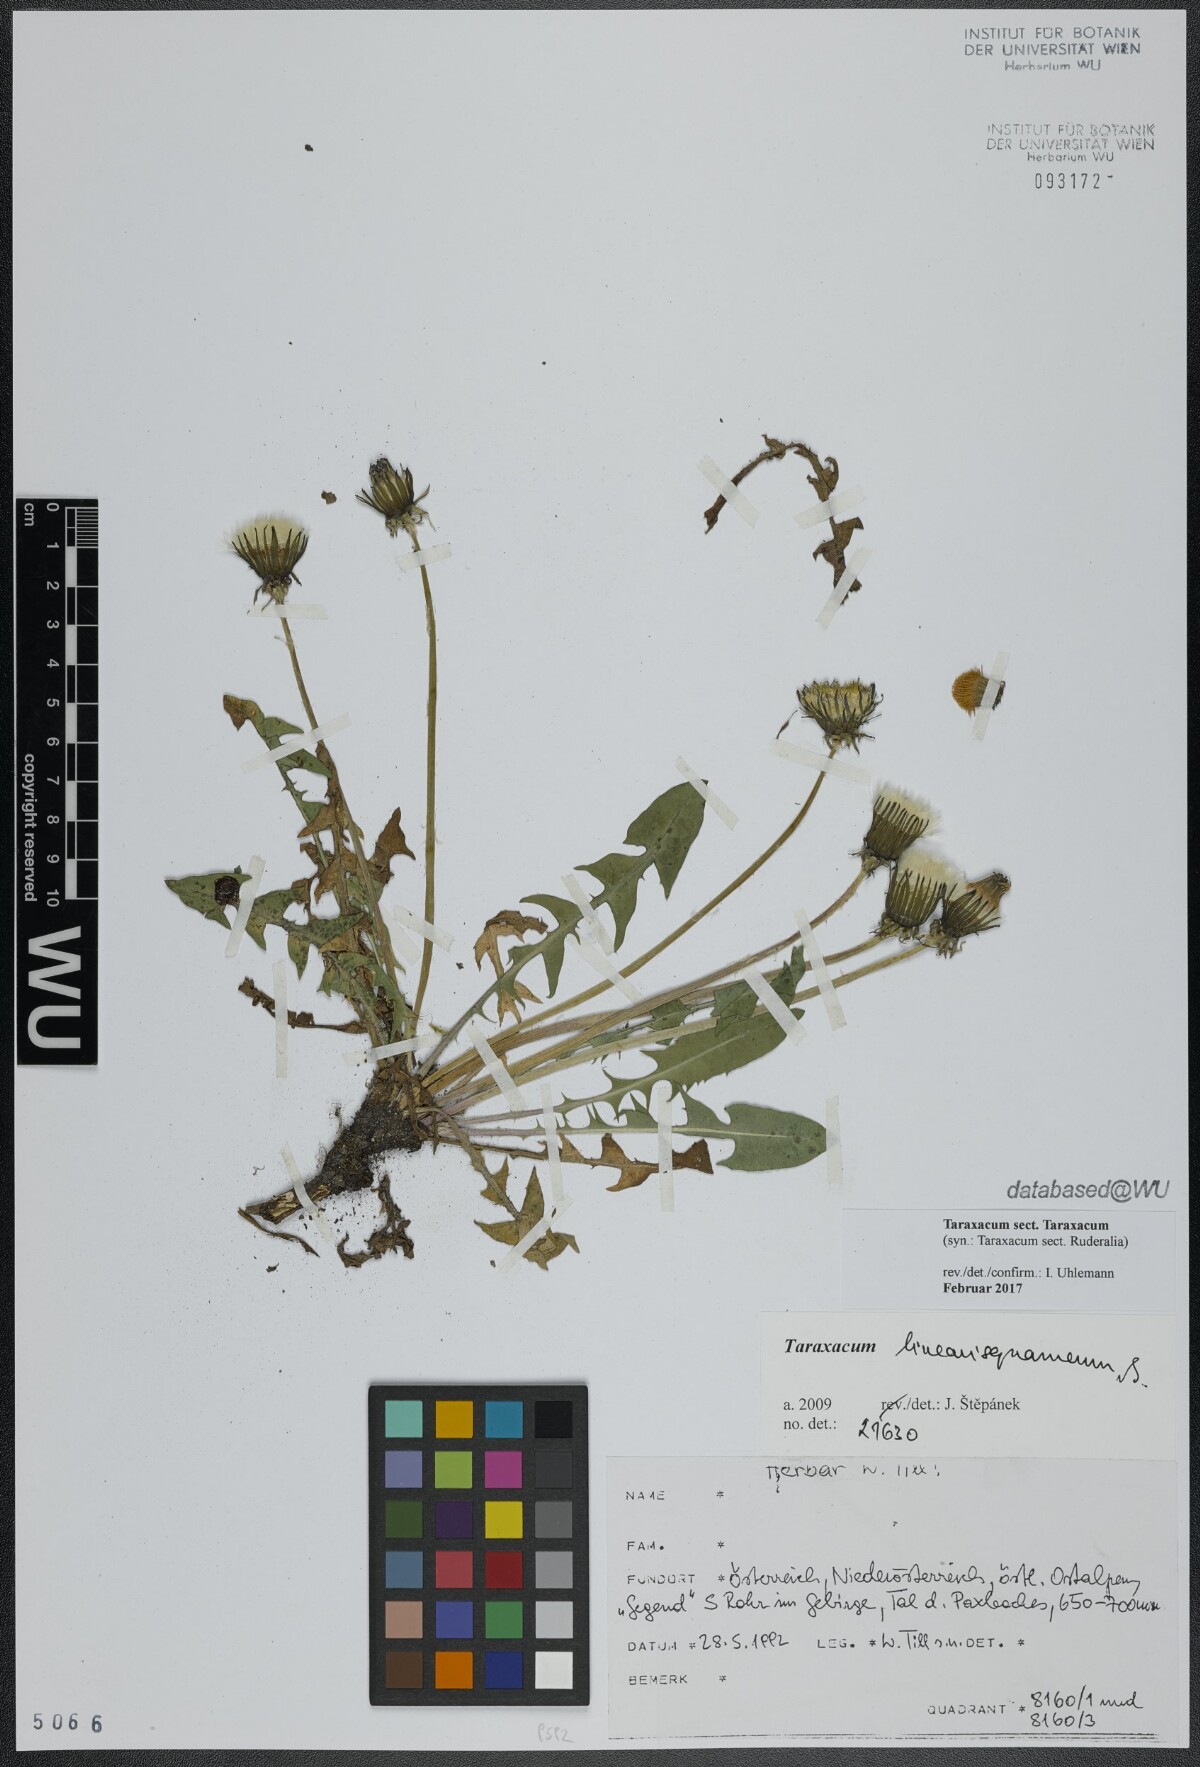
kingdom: Plantae
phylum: Tracheophyta
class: Magnoliopsida
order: Asterales
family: Asteraceae
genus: Taraxacum
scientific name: Taraxacum
